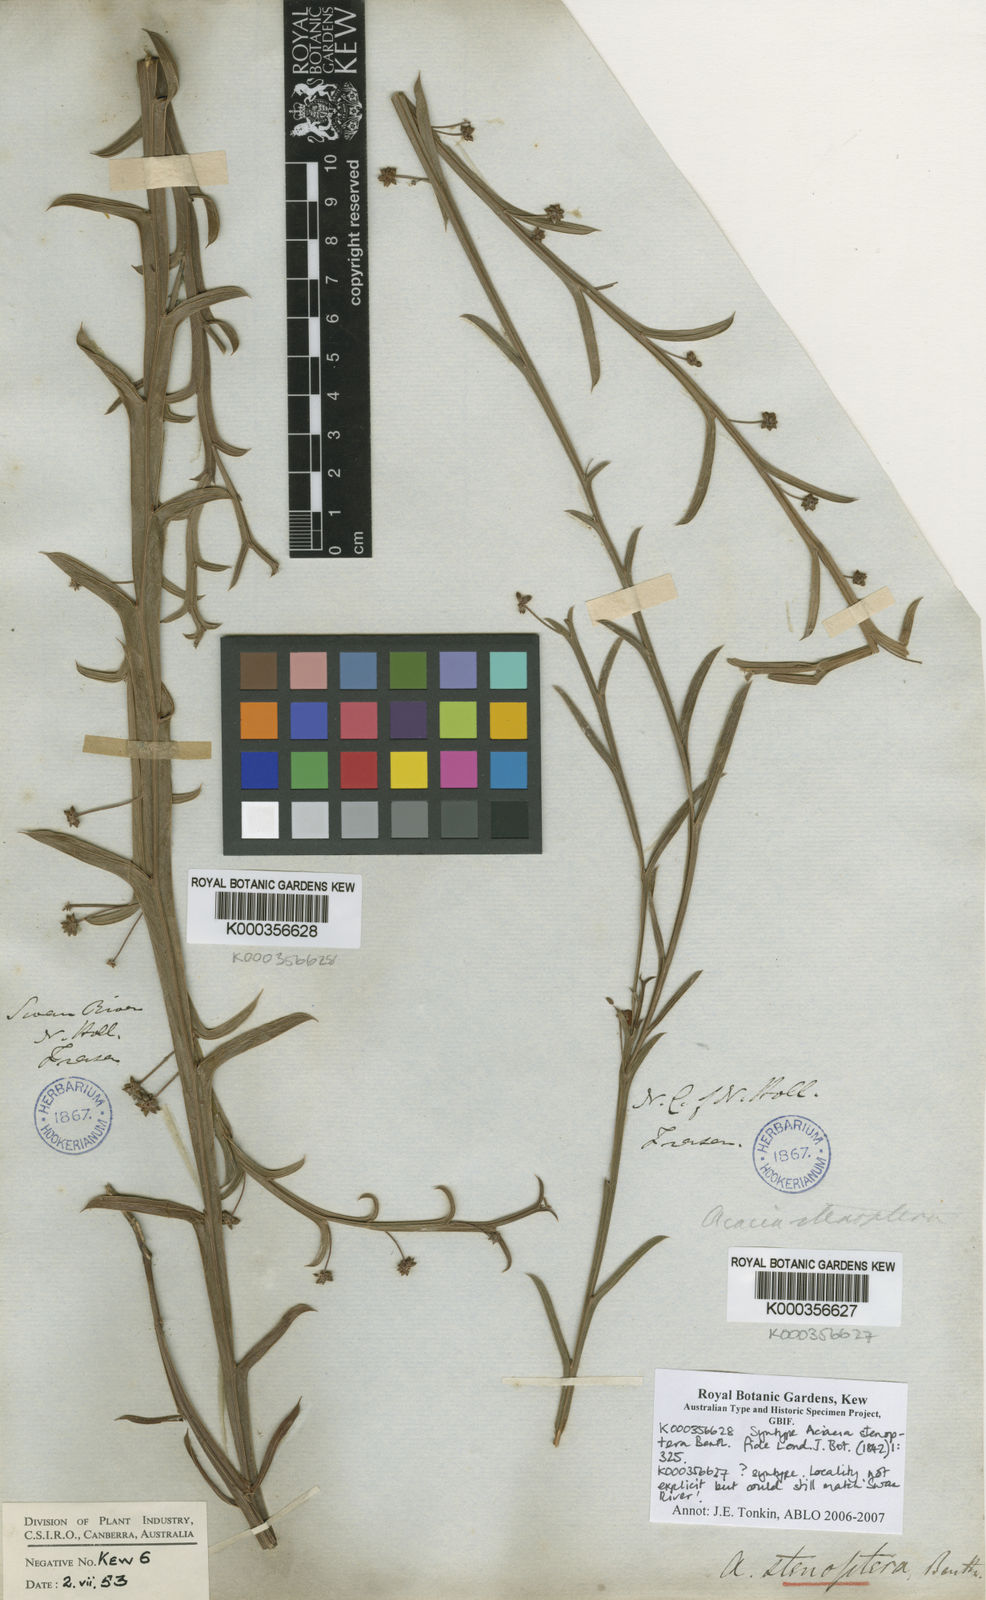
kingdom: Plantae
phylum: Tracheophyta
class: Magnoliopsida
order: Fabales
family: Fabaceae
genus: Acacia
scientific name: Acacia stenoptera
